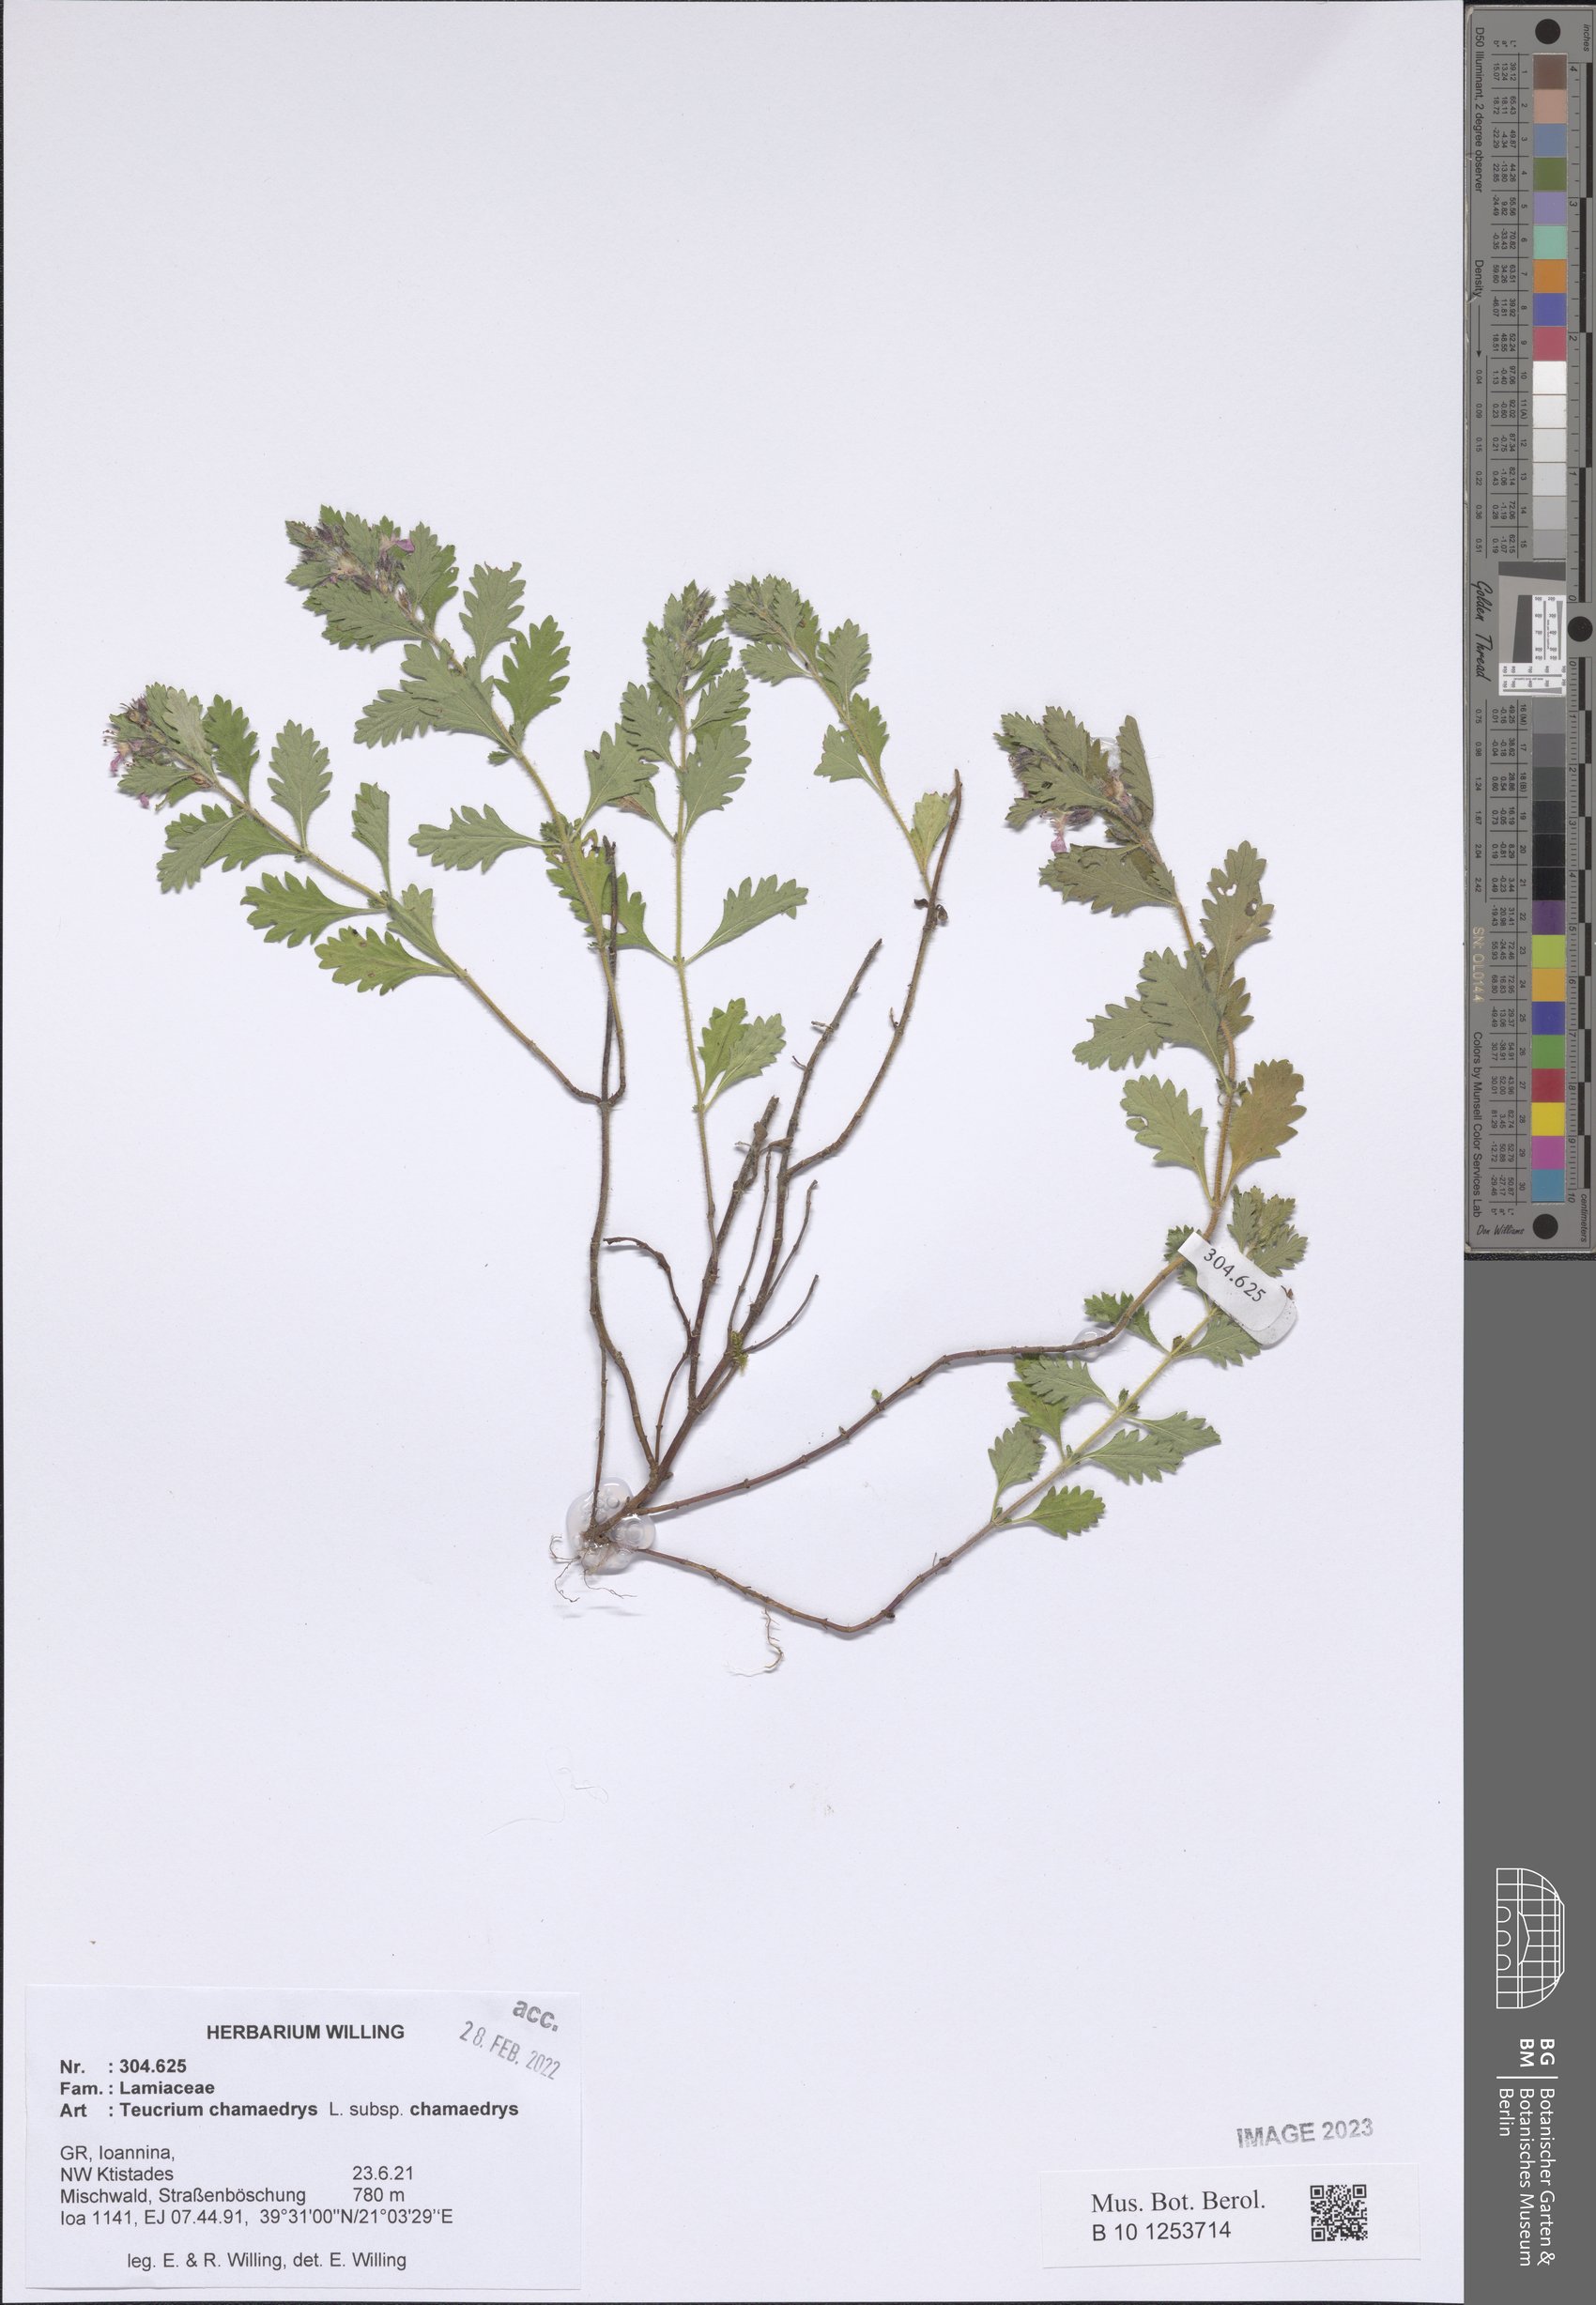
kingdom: Plantae
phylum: Tracheophyta
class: Magnoliopsida
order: Lamiales
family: Lamiaceae
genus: Teucrium
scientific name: Teucrium chamaedrys
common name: Wall germander
